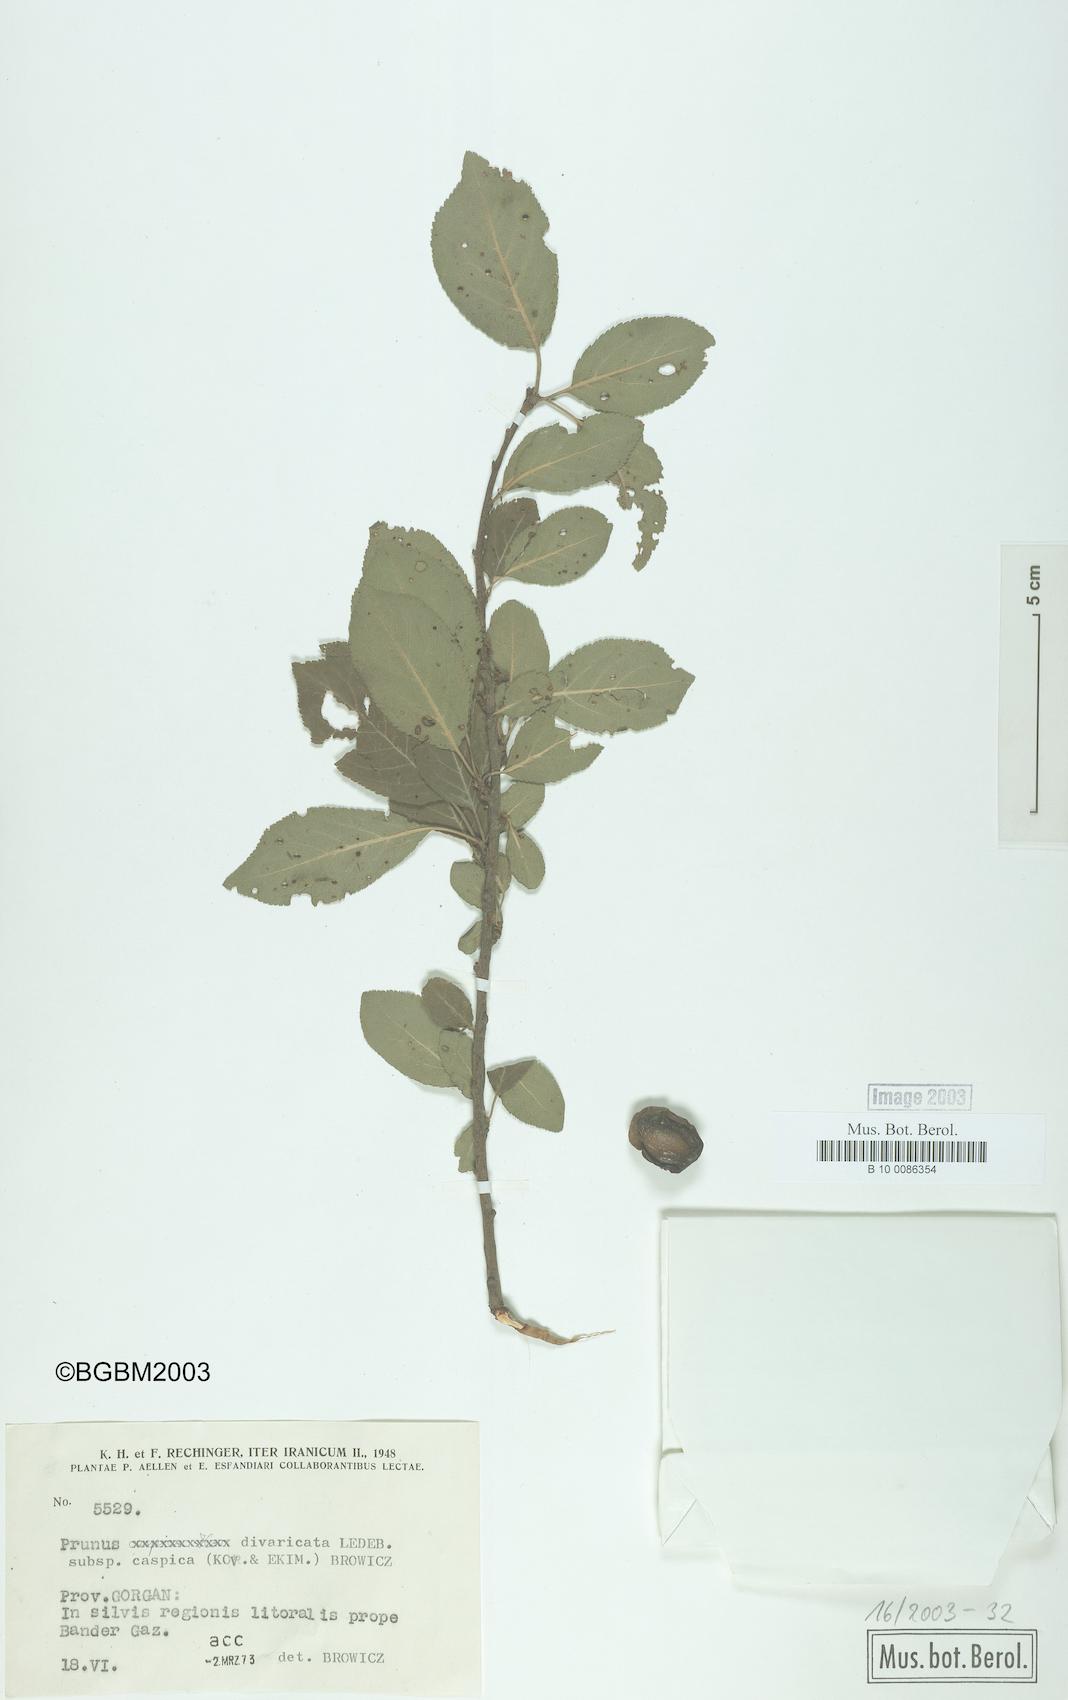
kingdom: Plantae
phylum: Tracheophyta
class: Magnoliopsida
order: Rosales
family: Rosaceae
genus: Prunus
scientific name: Prunus cerasifera
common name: Cherry plum
